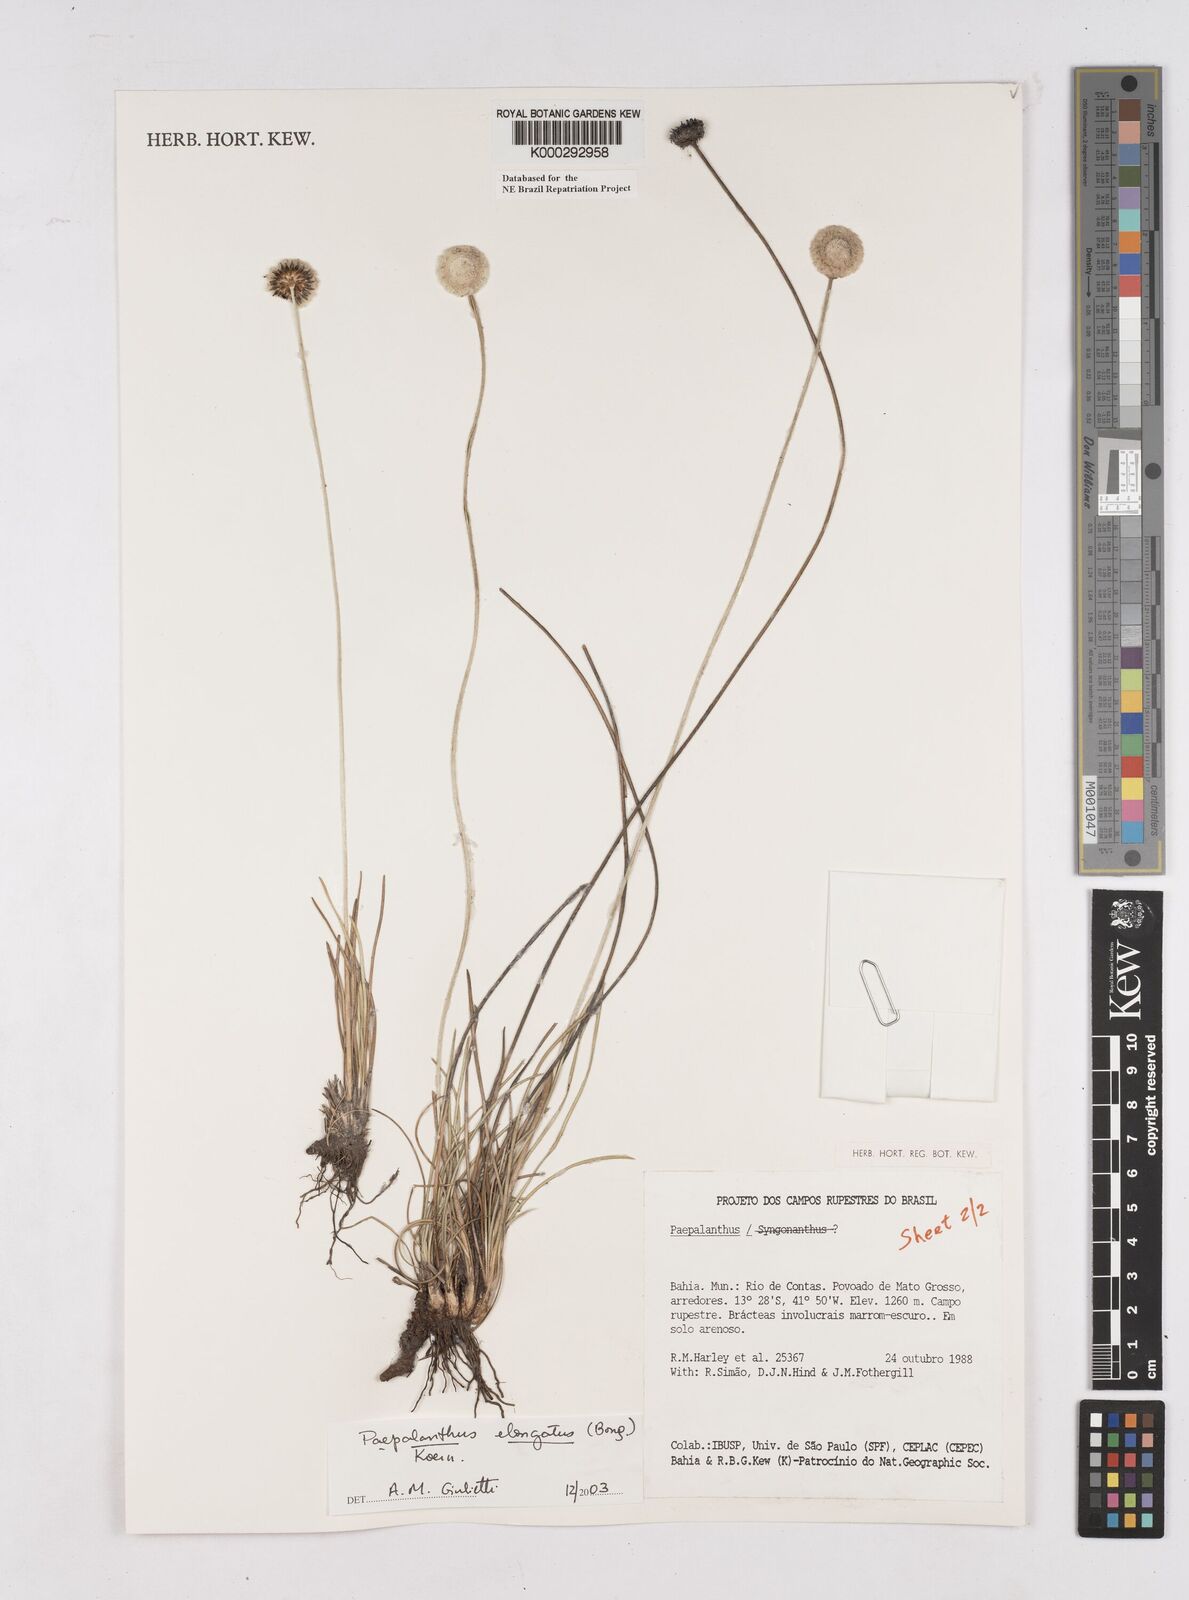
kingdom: Plantae
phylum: Tracheophyta
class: Liliopsida
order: Poales
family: Eriocaulaceae
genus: Paepalanthus
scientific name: Paepalanthus
